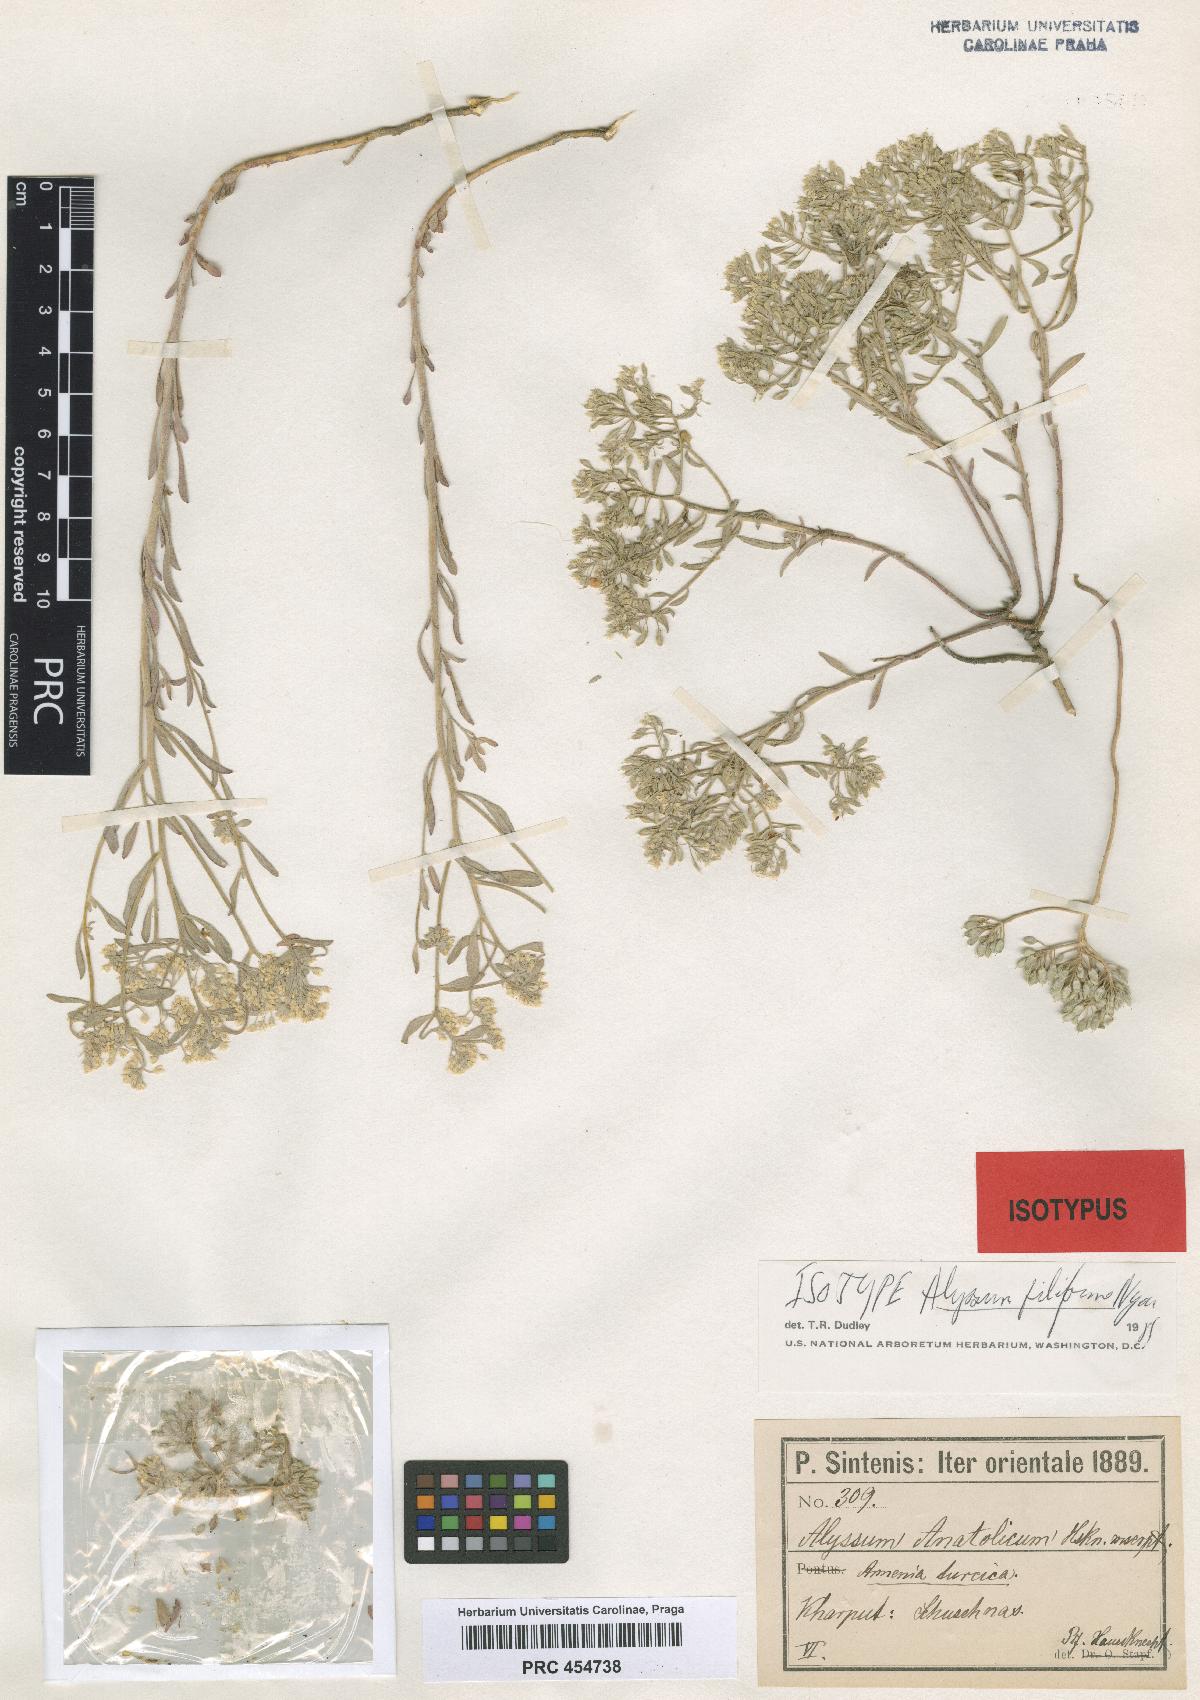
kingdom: Plantae
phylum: Tracheophyta
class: Magnoliopsida
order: Brassicales
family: Brassicaceae
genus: Odontarrhena
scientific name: Odontarrhena filiformis
